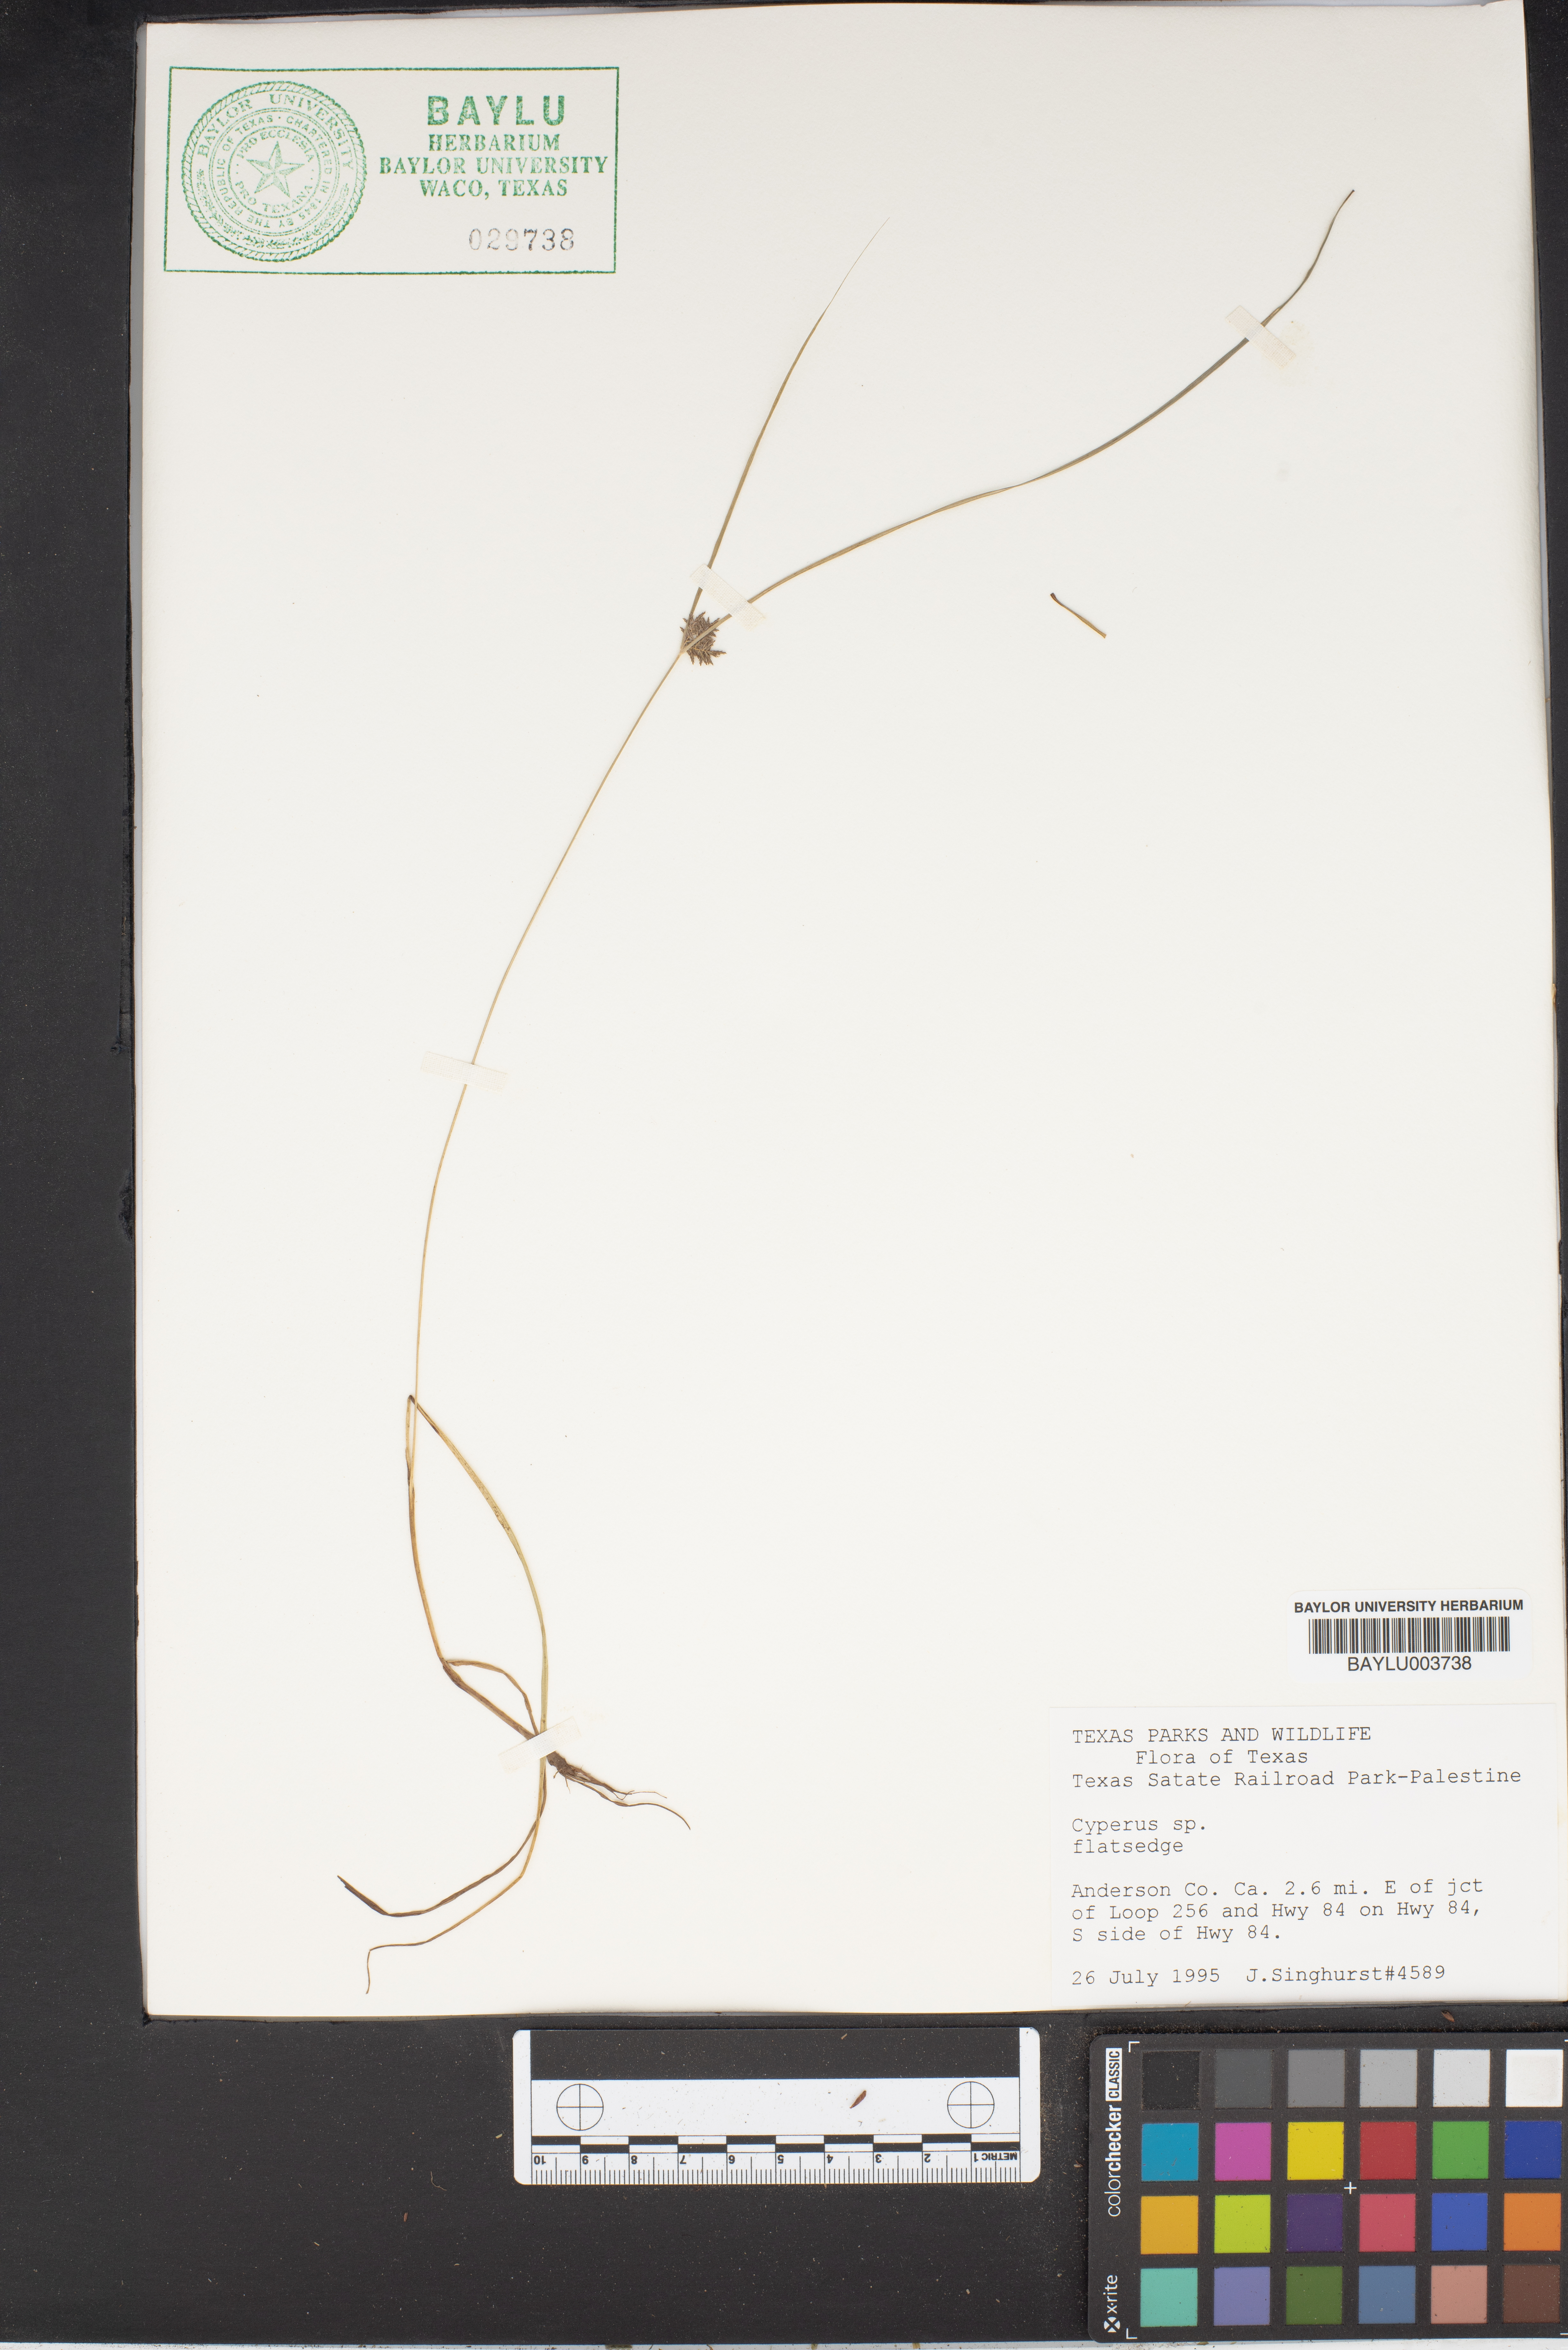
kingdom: Plantae
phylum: Tracheophyta
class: Liliopsida
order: Poales
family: Cyperaceae
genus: Cyperus
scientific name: Cyperus
